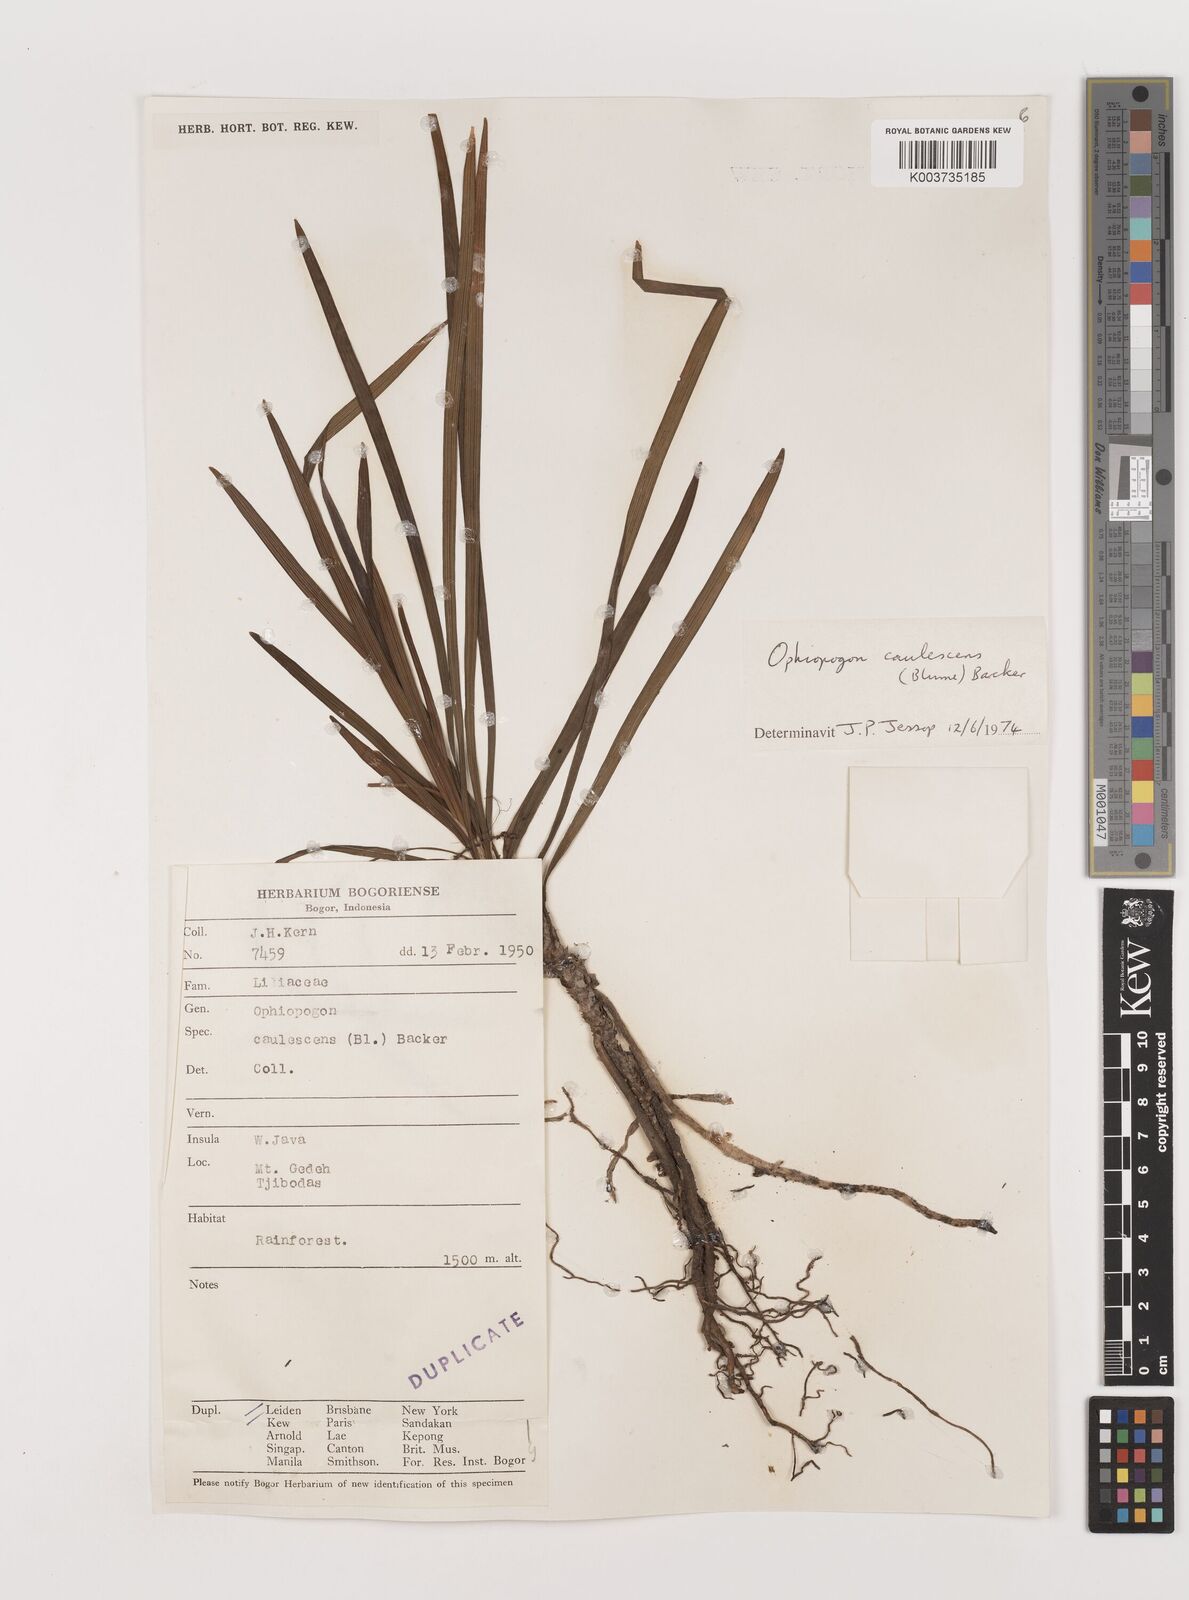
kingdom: Plantae
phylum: Tracheophyta
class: Liliopsida
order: Asparagales
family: Asparagaceae
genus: Ophiopogon
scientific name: Ophiopogon caulescens
